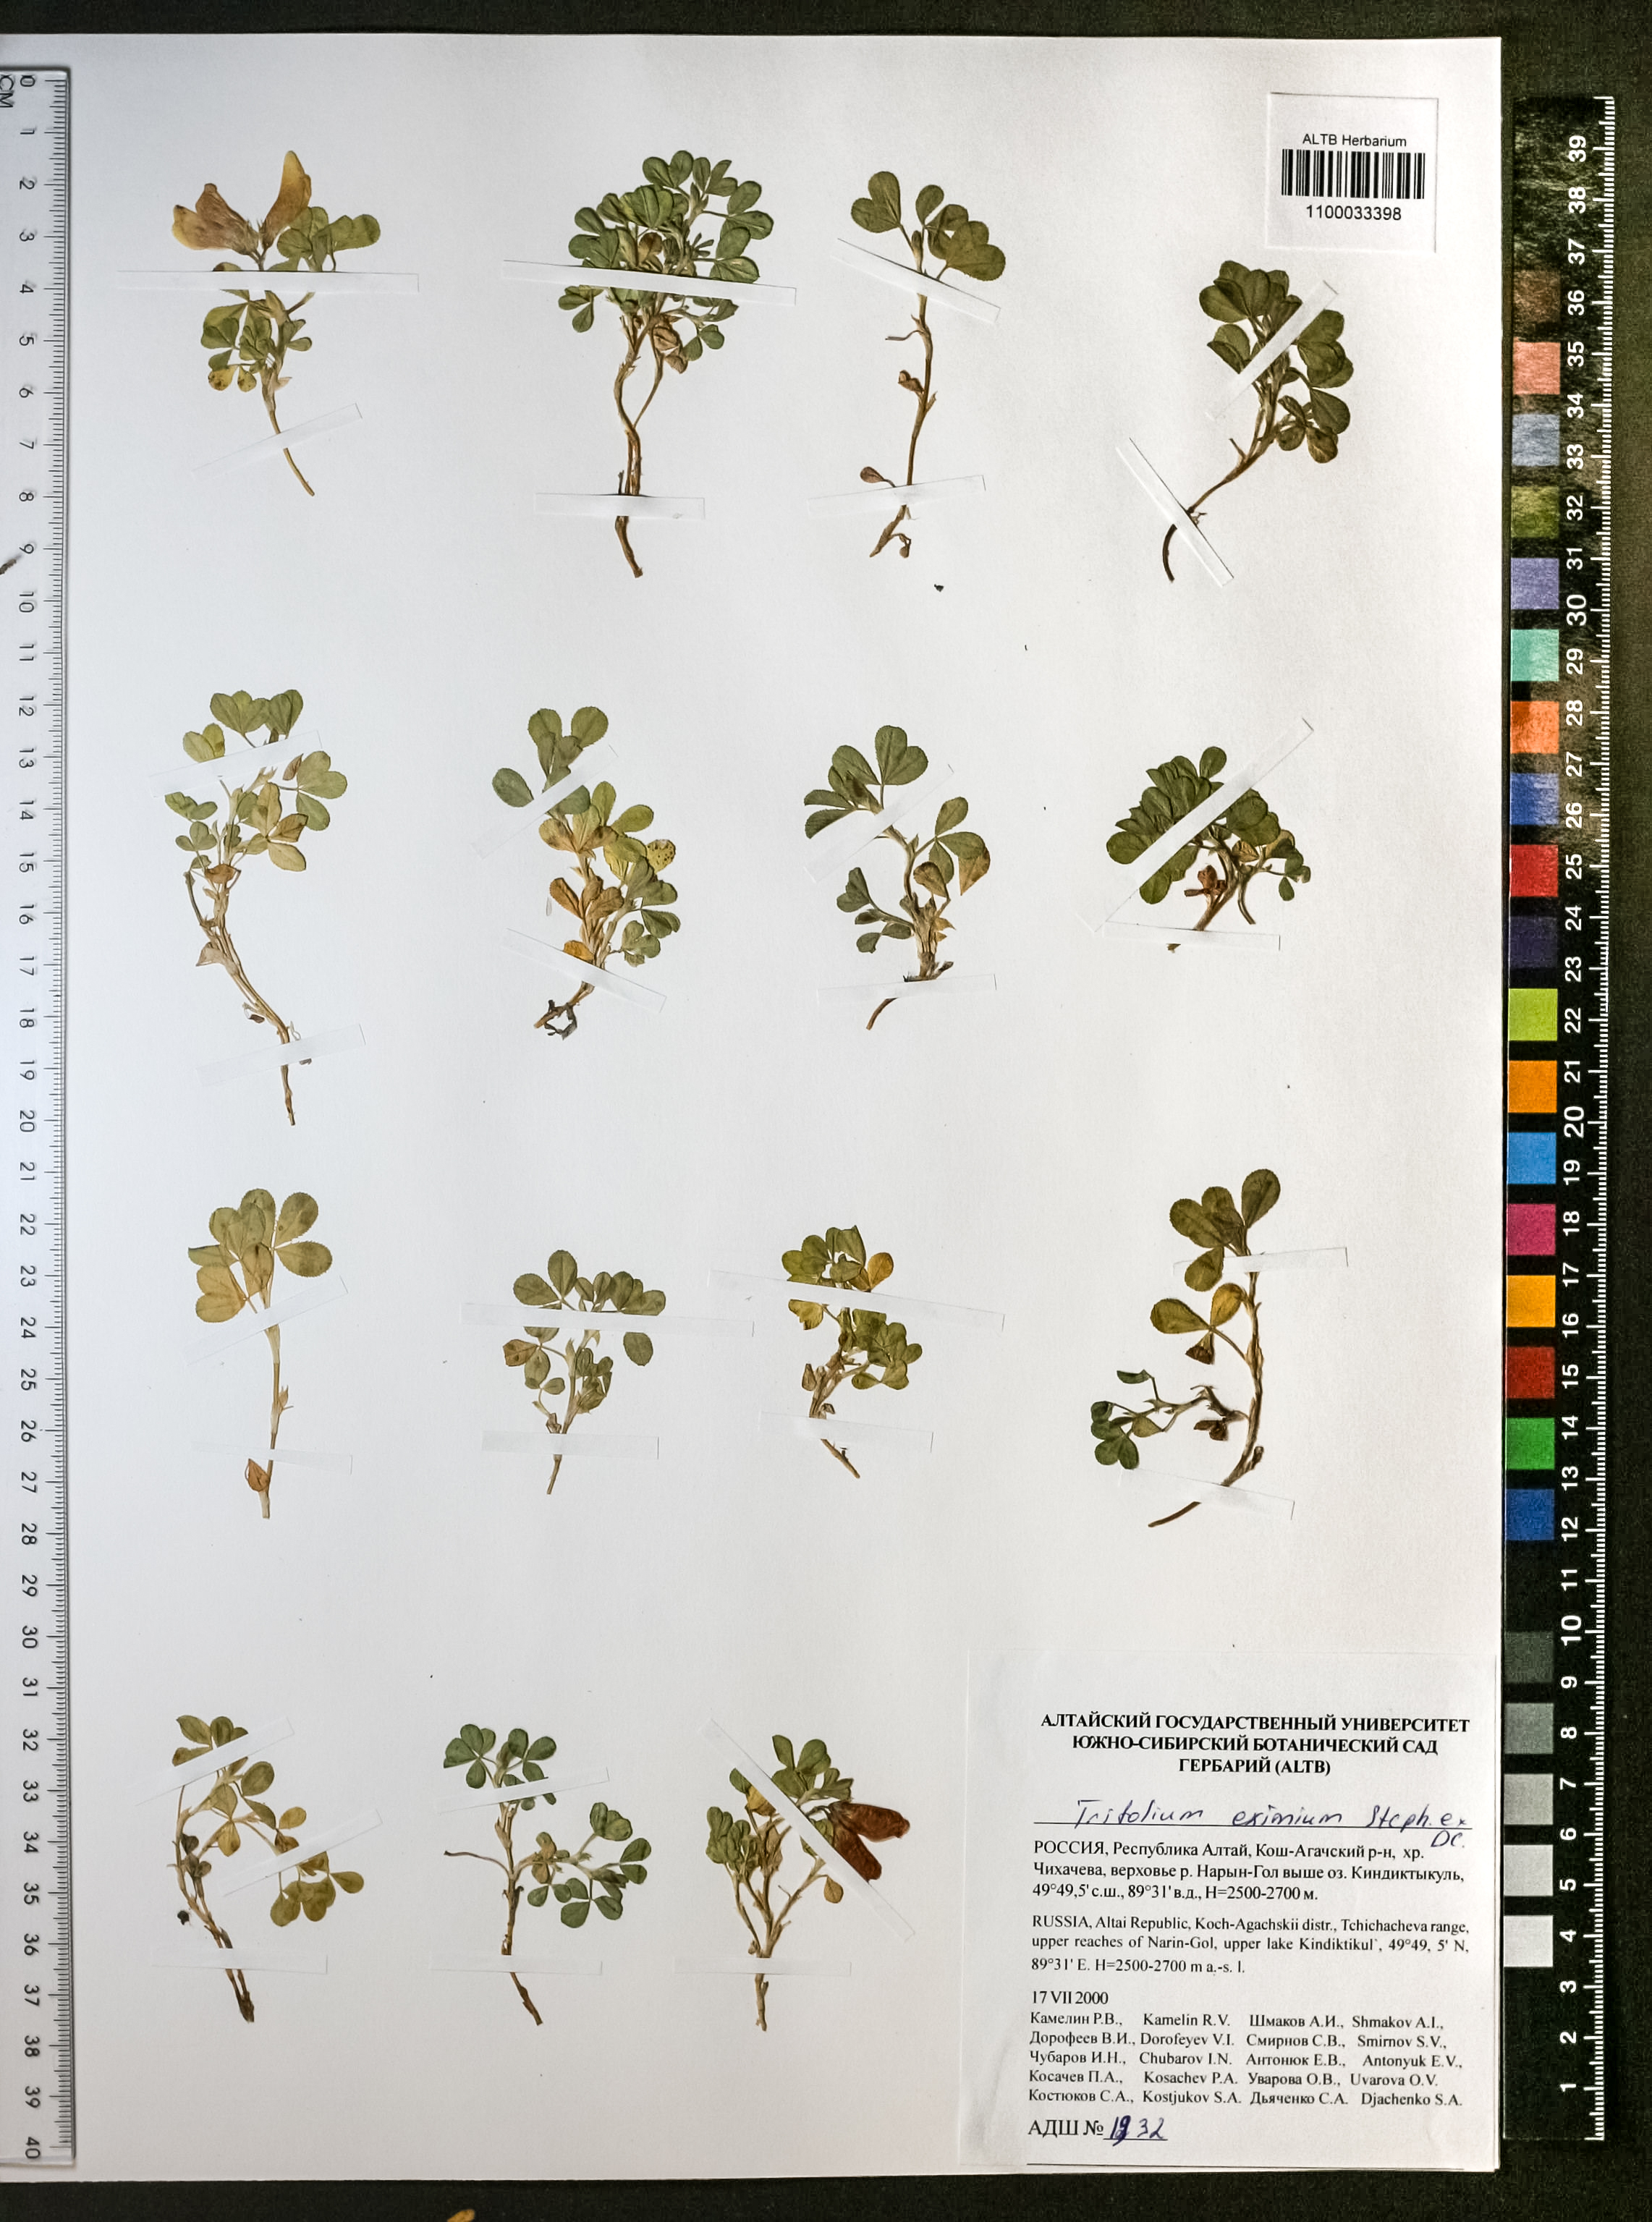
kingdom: Plantae
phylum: Tracheophyta
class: Magnoliopsida
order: Fabales
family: Fabaceae
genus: Trifolium
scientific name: Trifolium eximium
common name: Excellent clover
